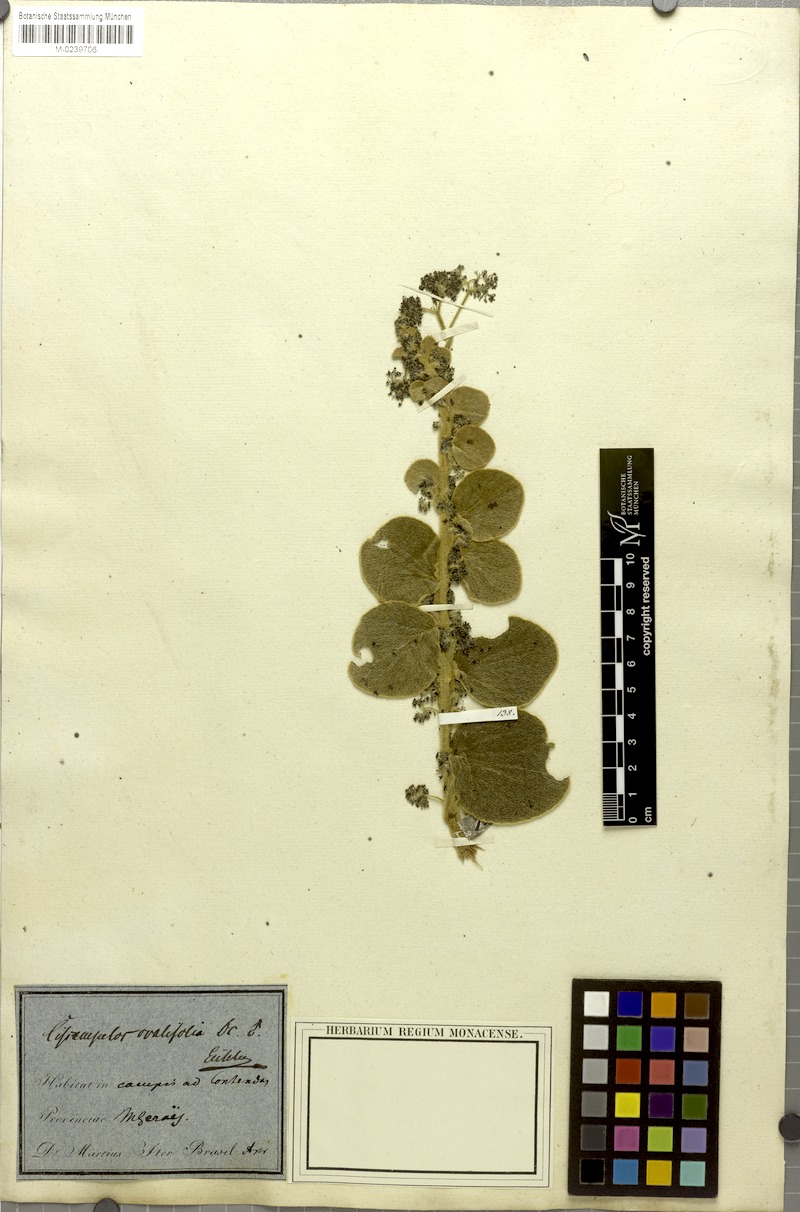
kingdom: Plantae
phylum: Tracheophyta
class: Magnoliopsida
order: Ranunculales
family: Menispermaceae
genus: Cissampelos
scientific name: Cissampelos ovalifolia
